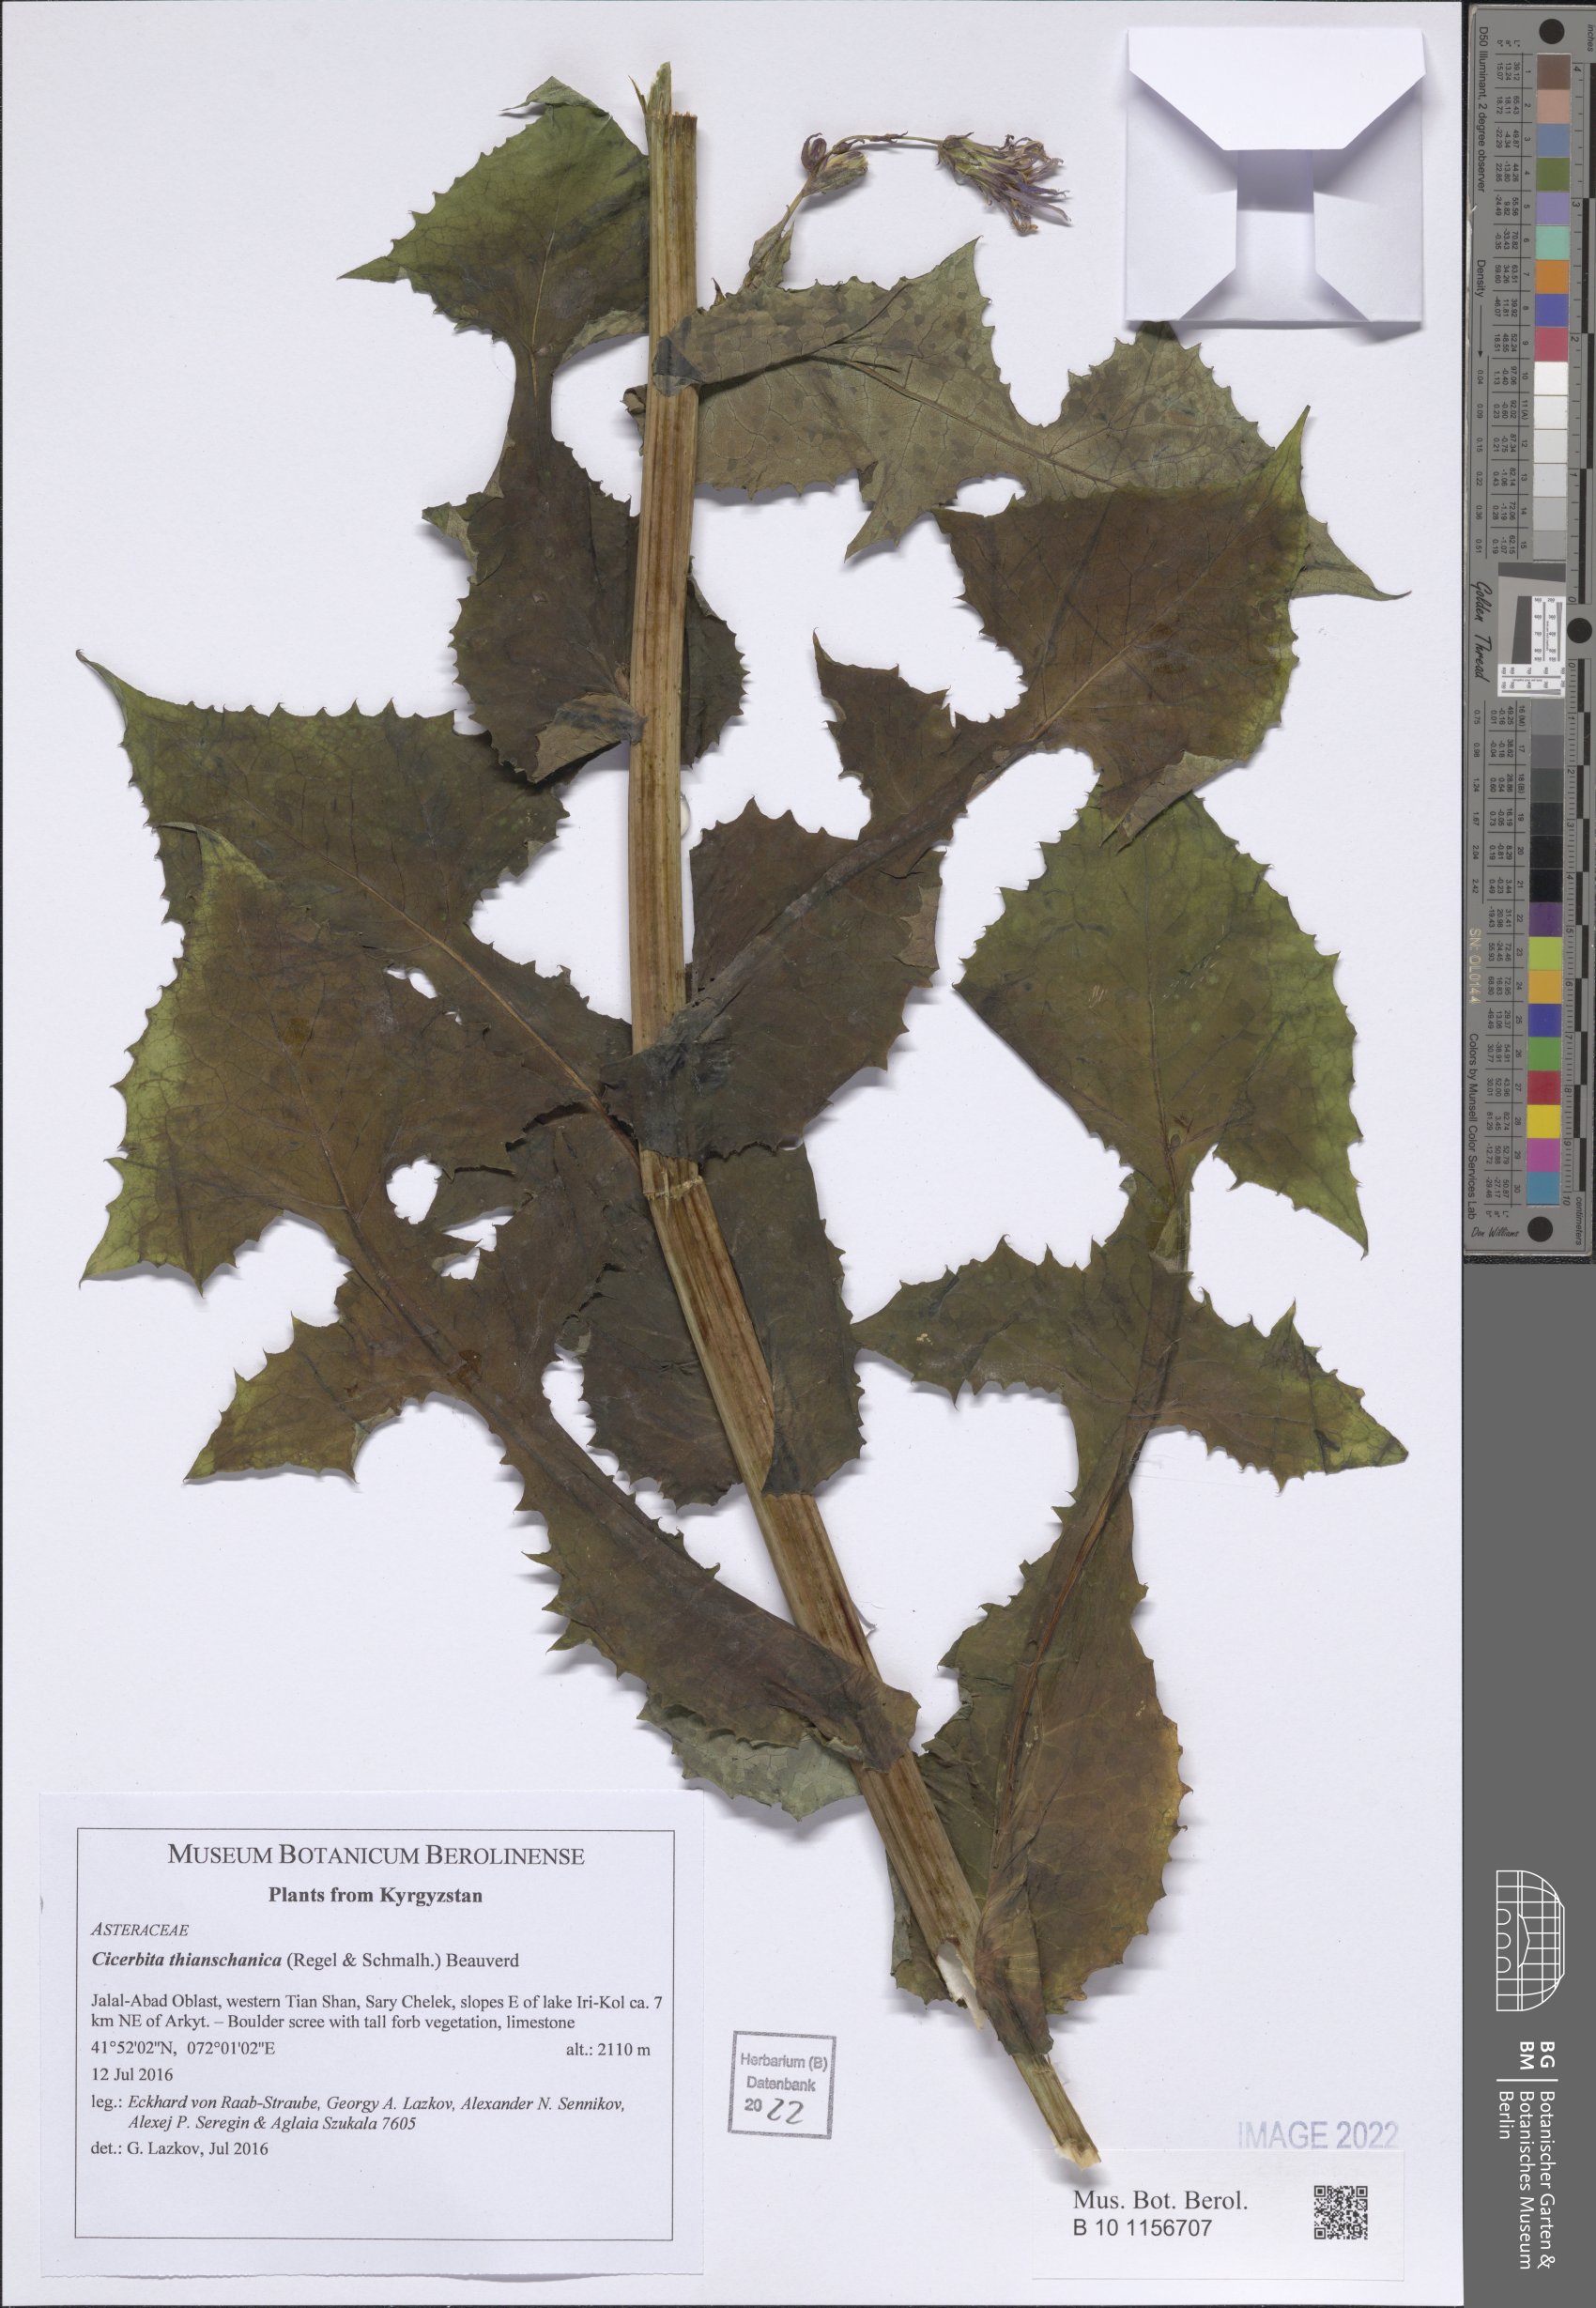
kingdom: Plantae
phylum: Tracheophyta
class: Magnoliopsida
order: Asterales
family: Asteraceae
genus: Cicerbita
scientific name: Cicerbita thianschanica
